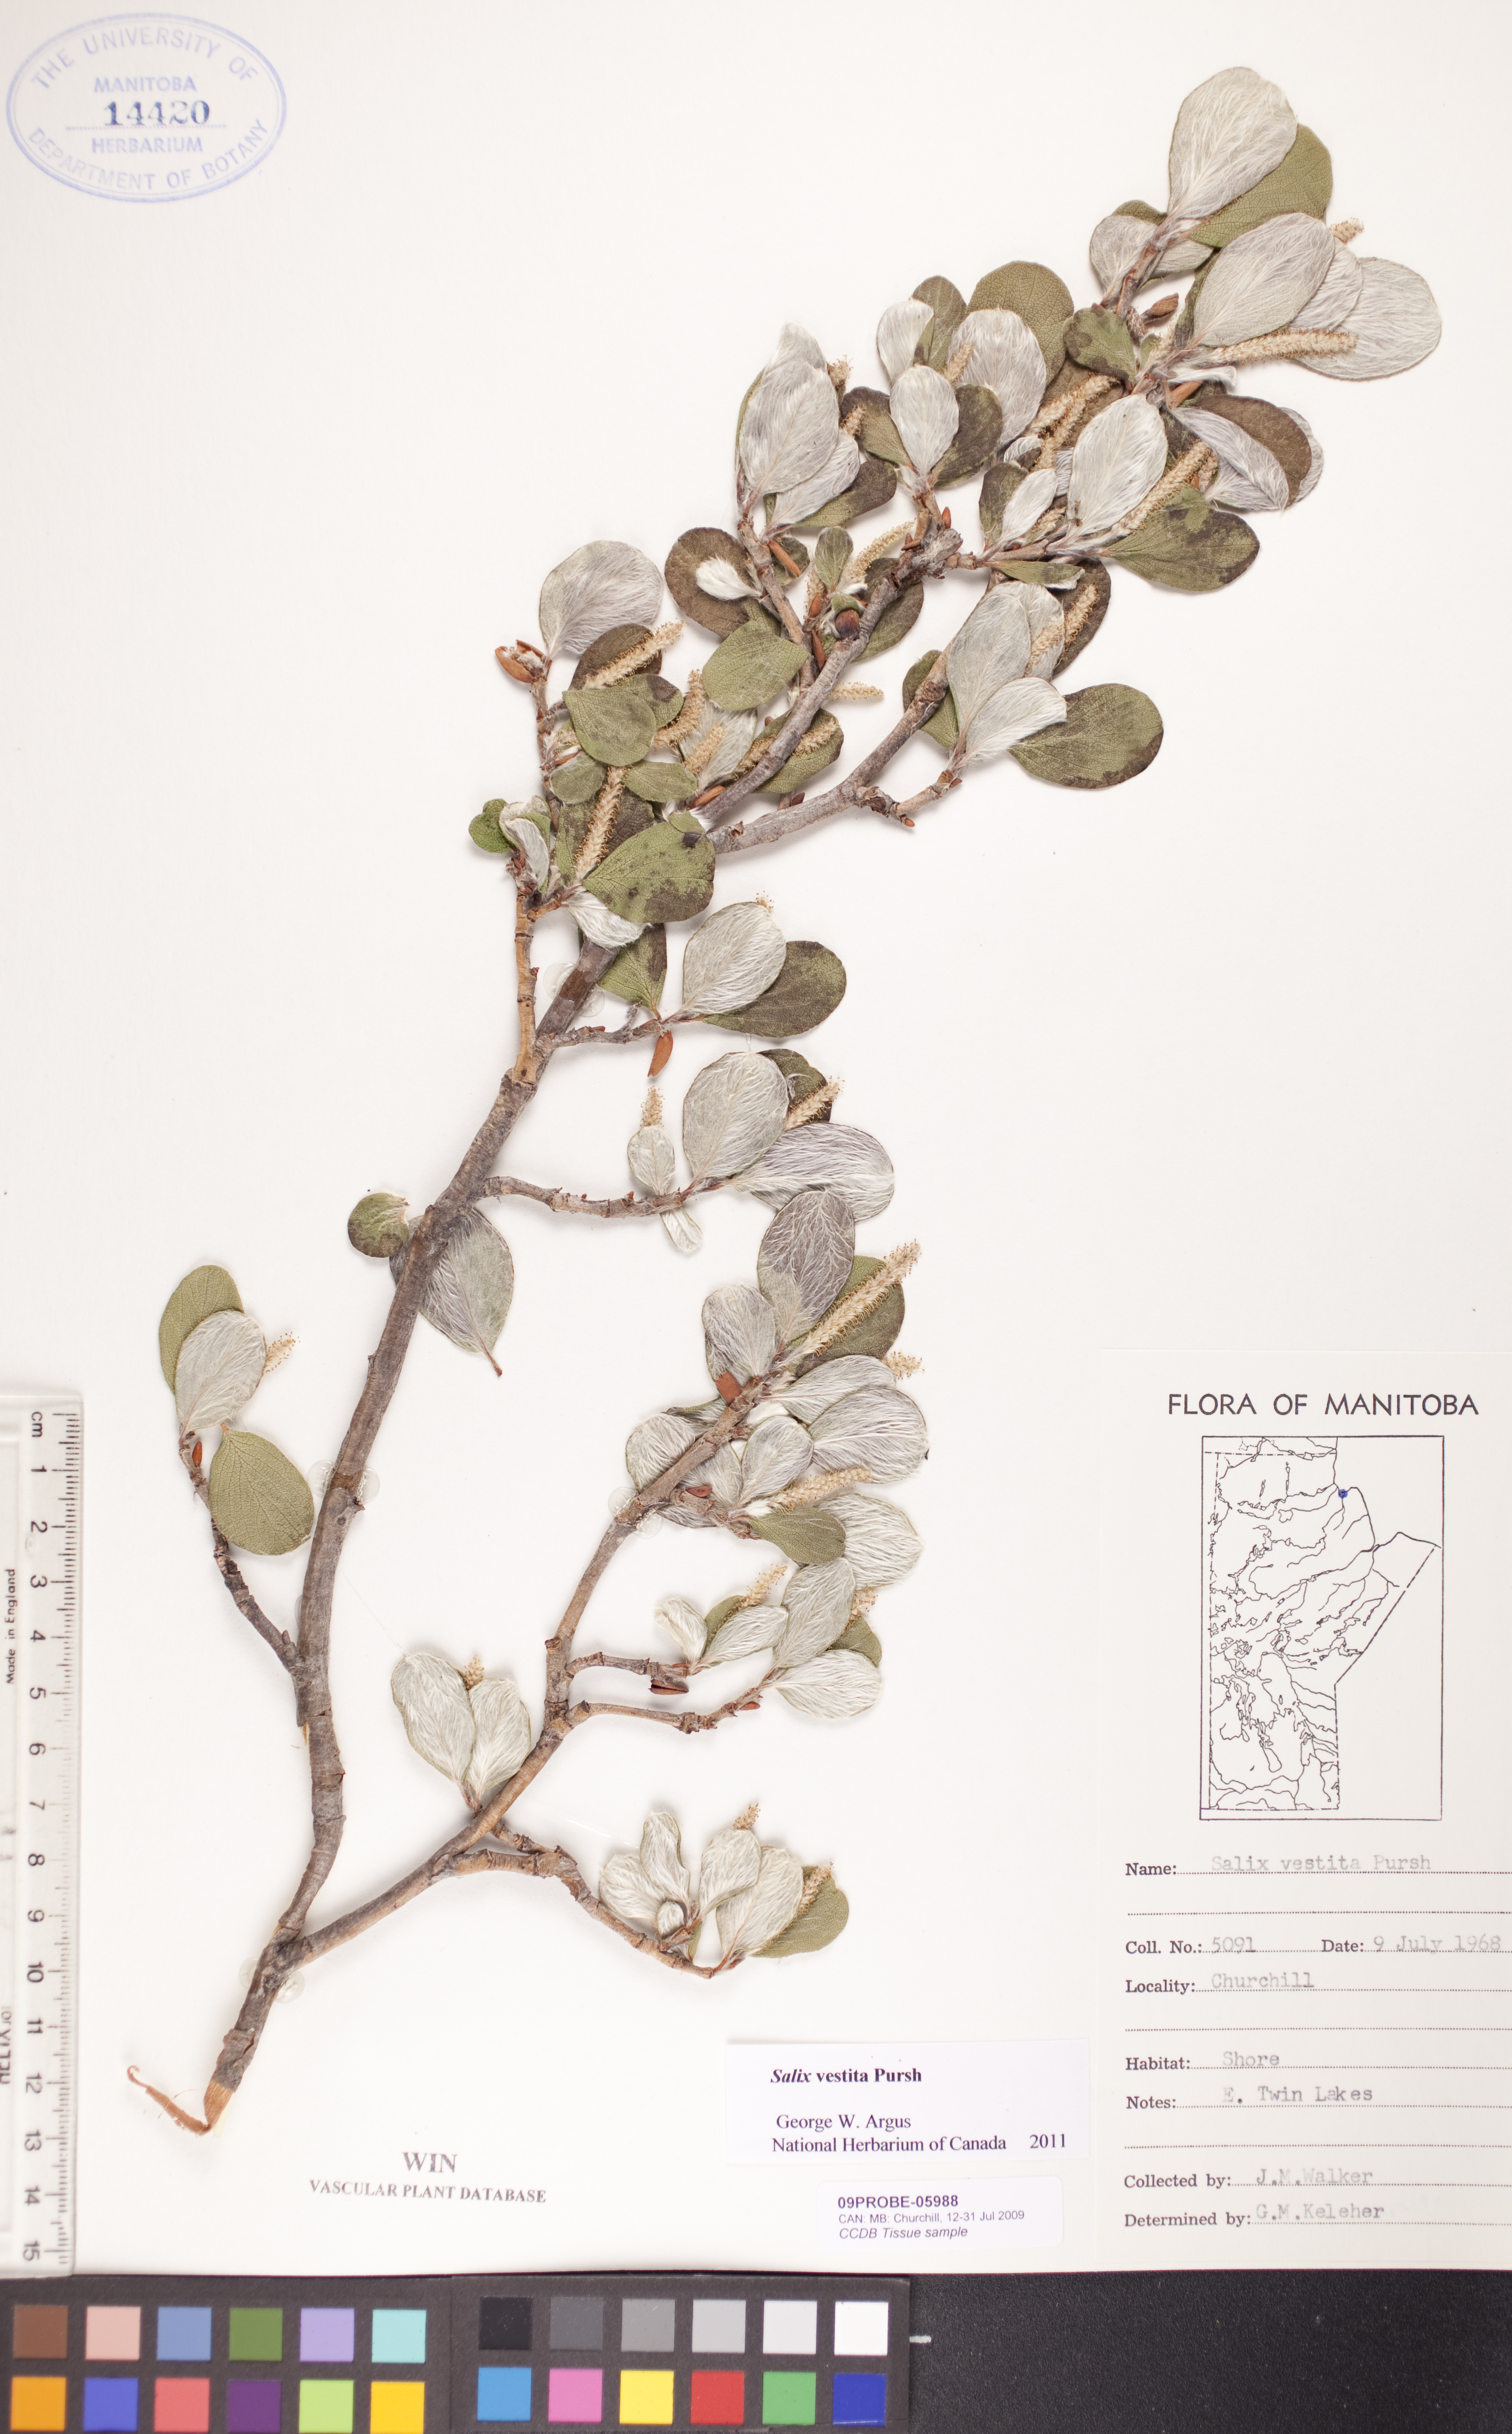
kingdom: Plantae
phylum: Tracheophyta
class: Magnoliopsida
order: Malpighiales
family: Salicaceae
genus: Salix
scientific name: Salix vestita
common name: Hairy willow
